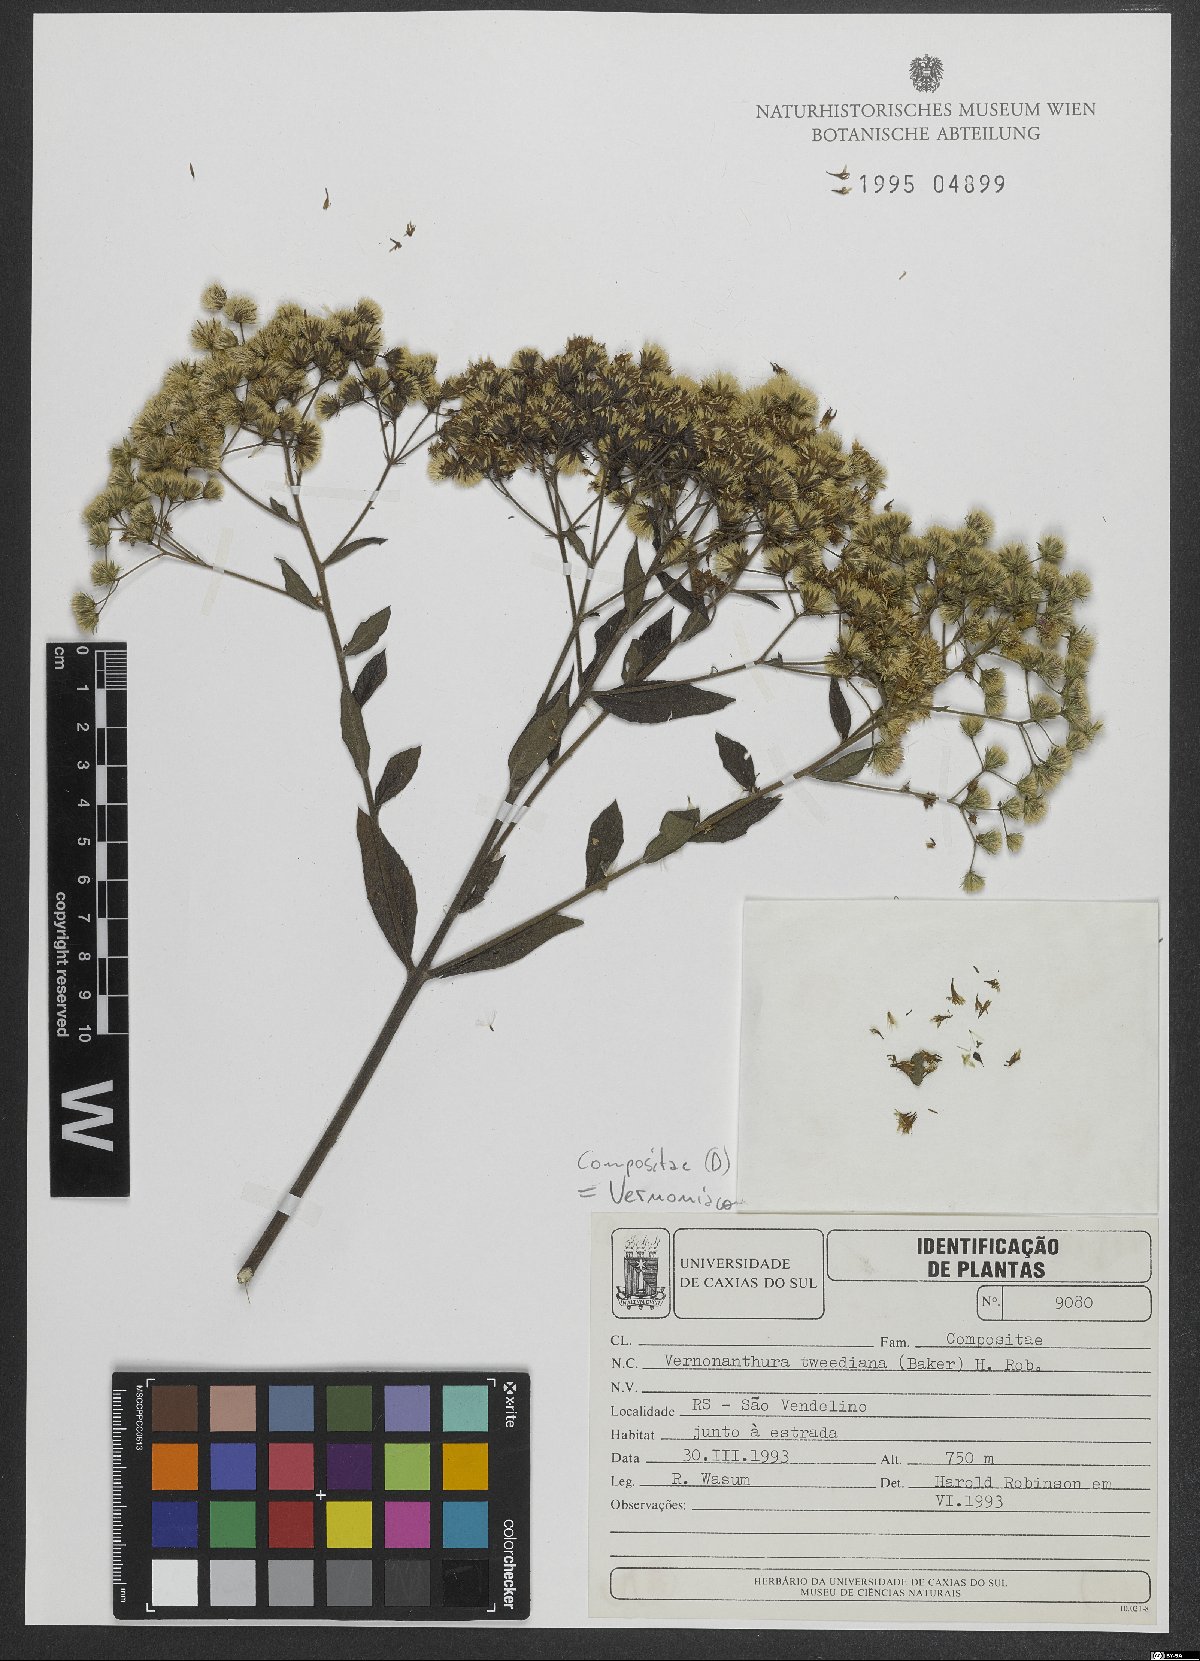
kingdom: Plantae
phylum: Tracheophyta
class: Magnoliopsida
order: Asterales
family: Asteraceae
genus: Vernonanthura
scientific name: Vernonanthura tweedieana
